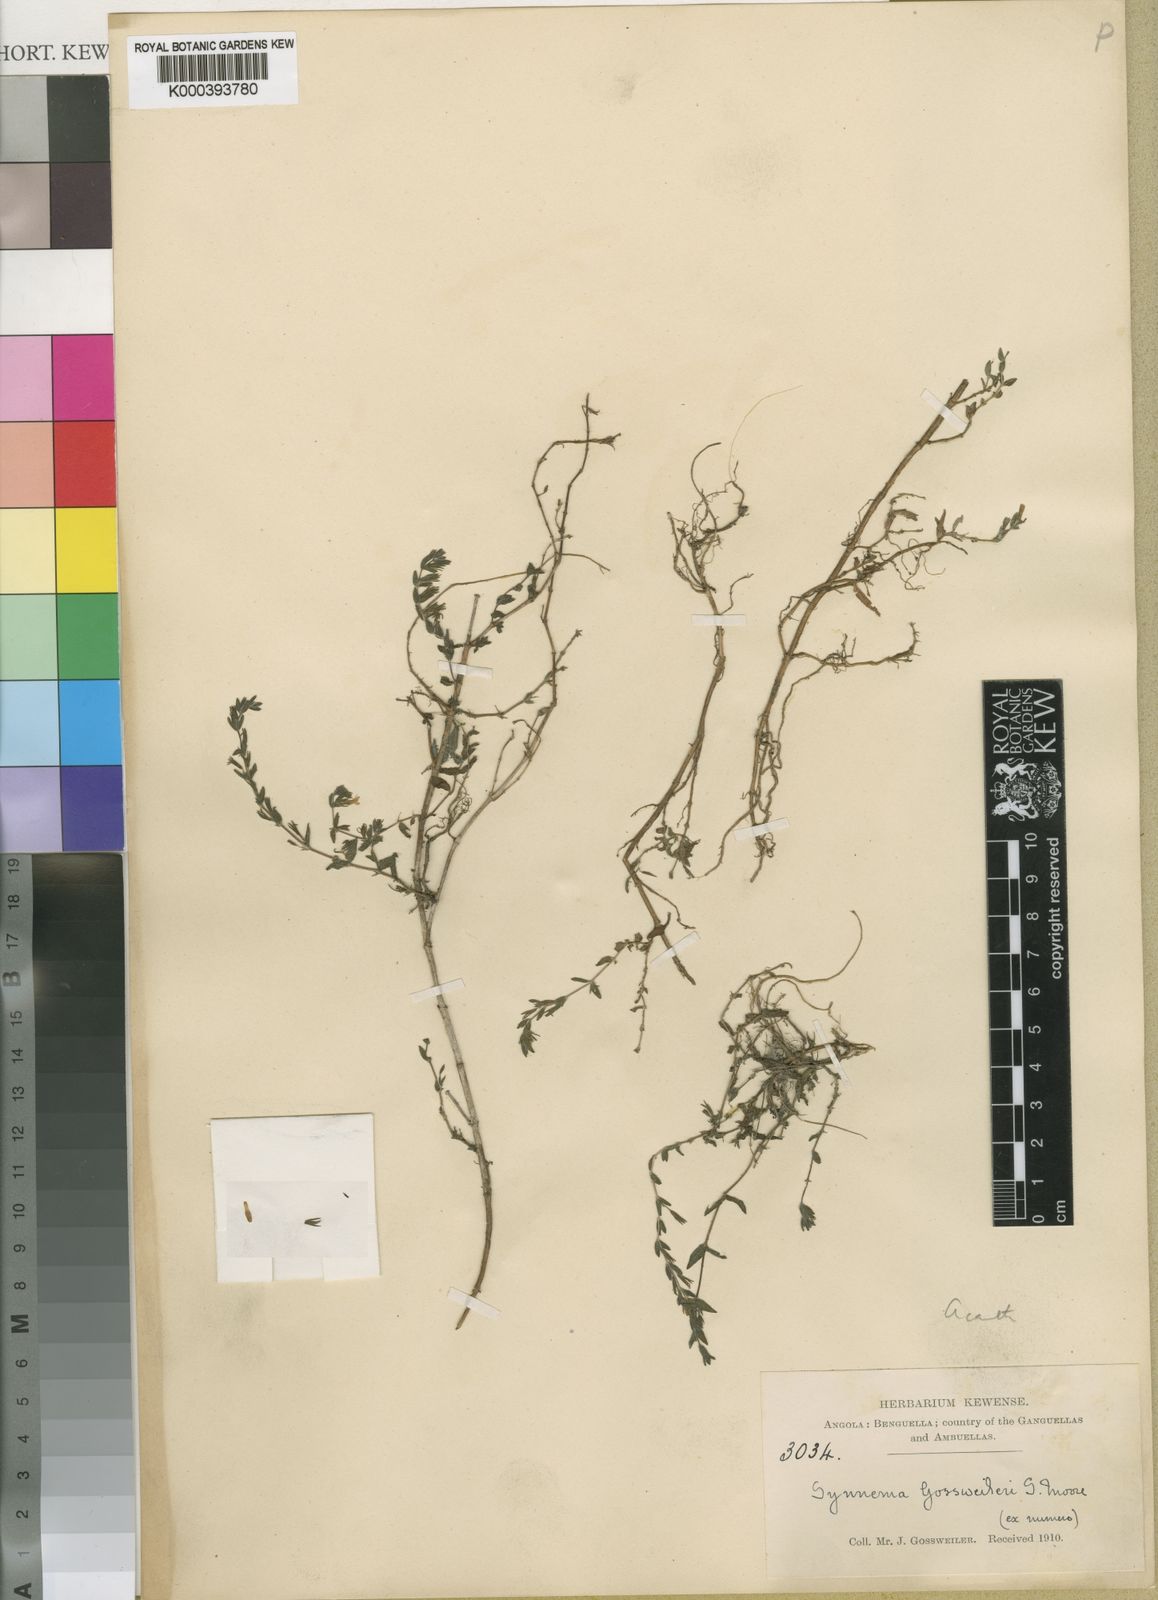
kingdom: Plantae
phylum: Tracheophyta
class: Magnoliopsida
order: Lamiales
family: Acanthaceae
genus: Hygrophila
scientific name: Hygrophila gossweileri
